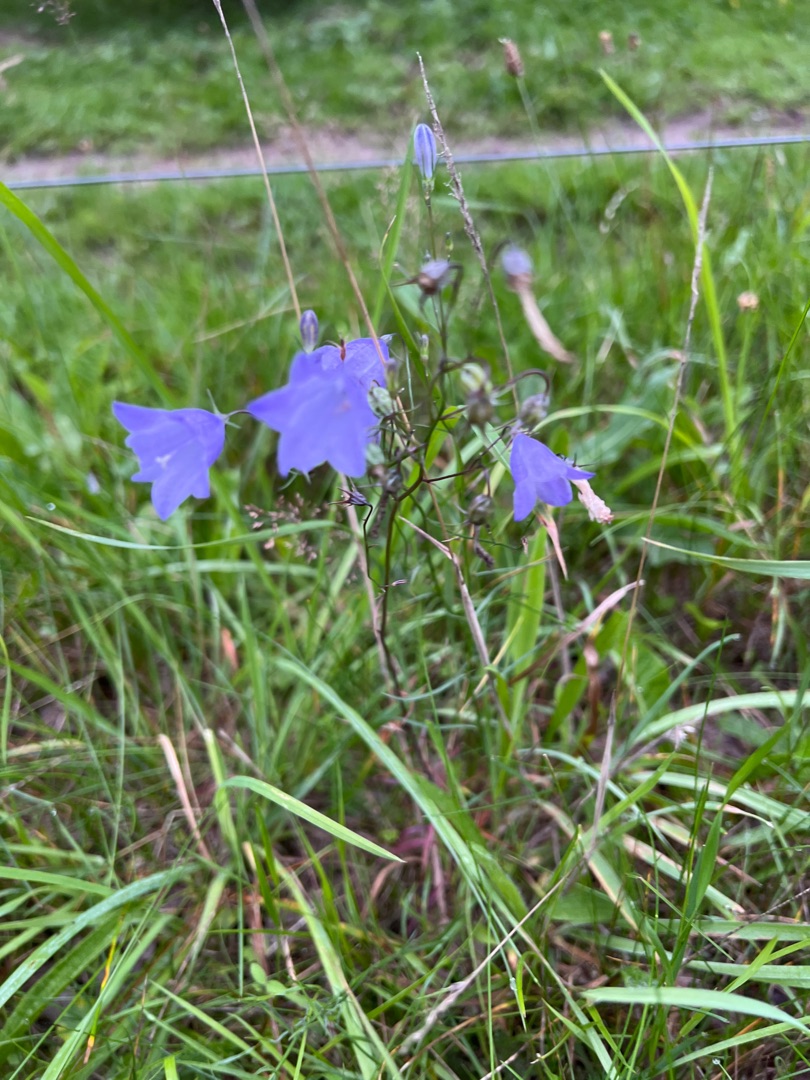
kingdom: Plantae
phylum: Tracheophyta
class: Magnoliopsida
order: Asterales
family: Campanulaceae
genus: Campanula
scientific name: Campanula rotundifolia
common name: Liden klokke
